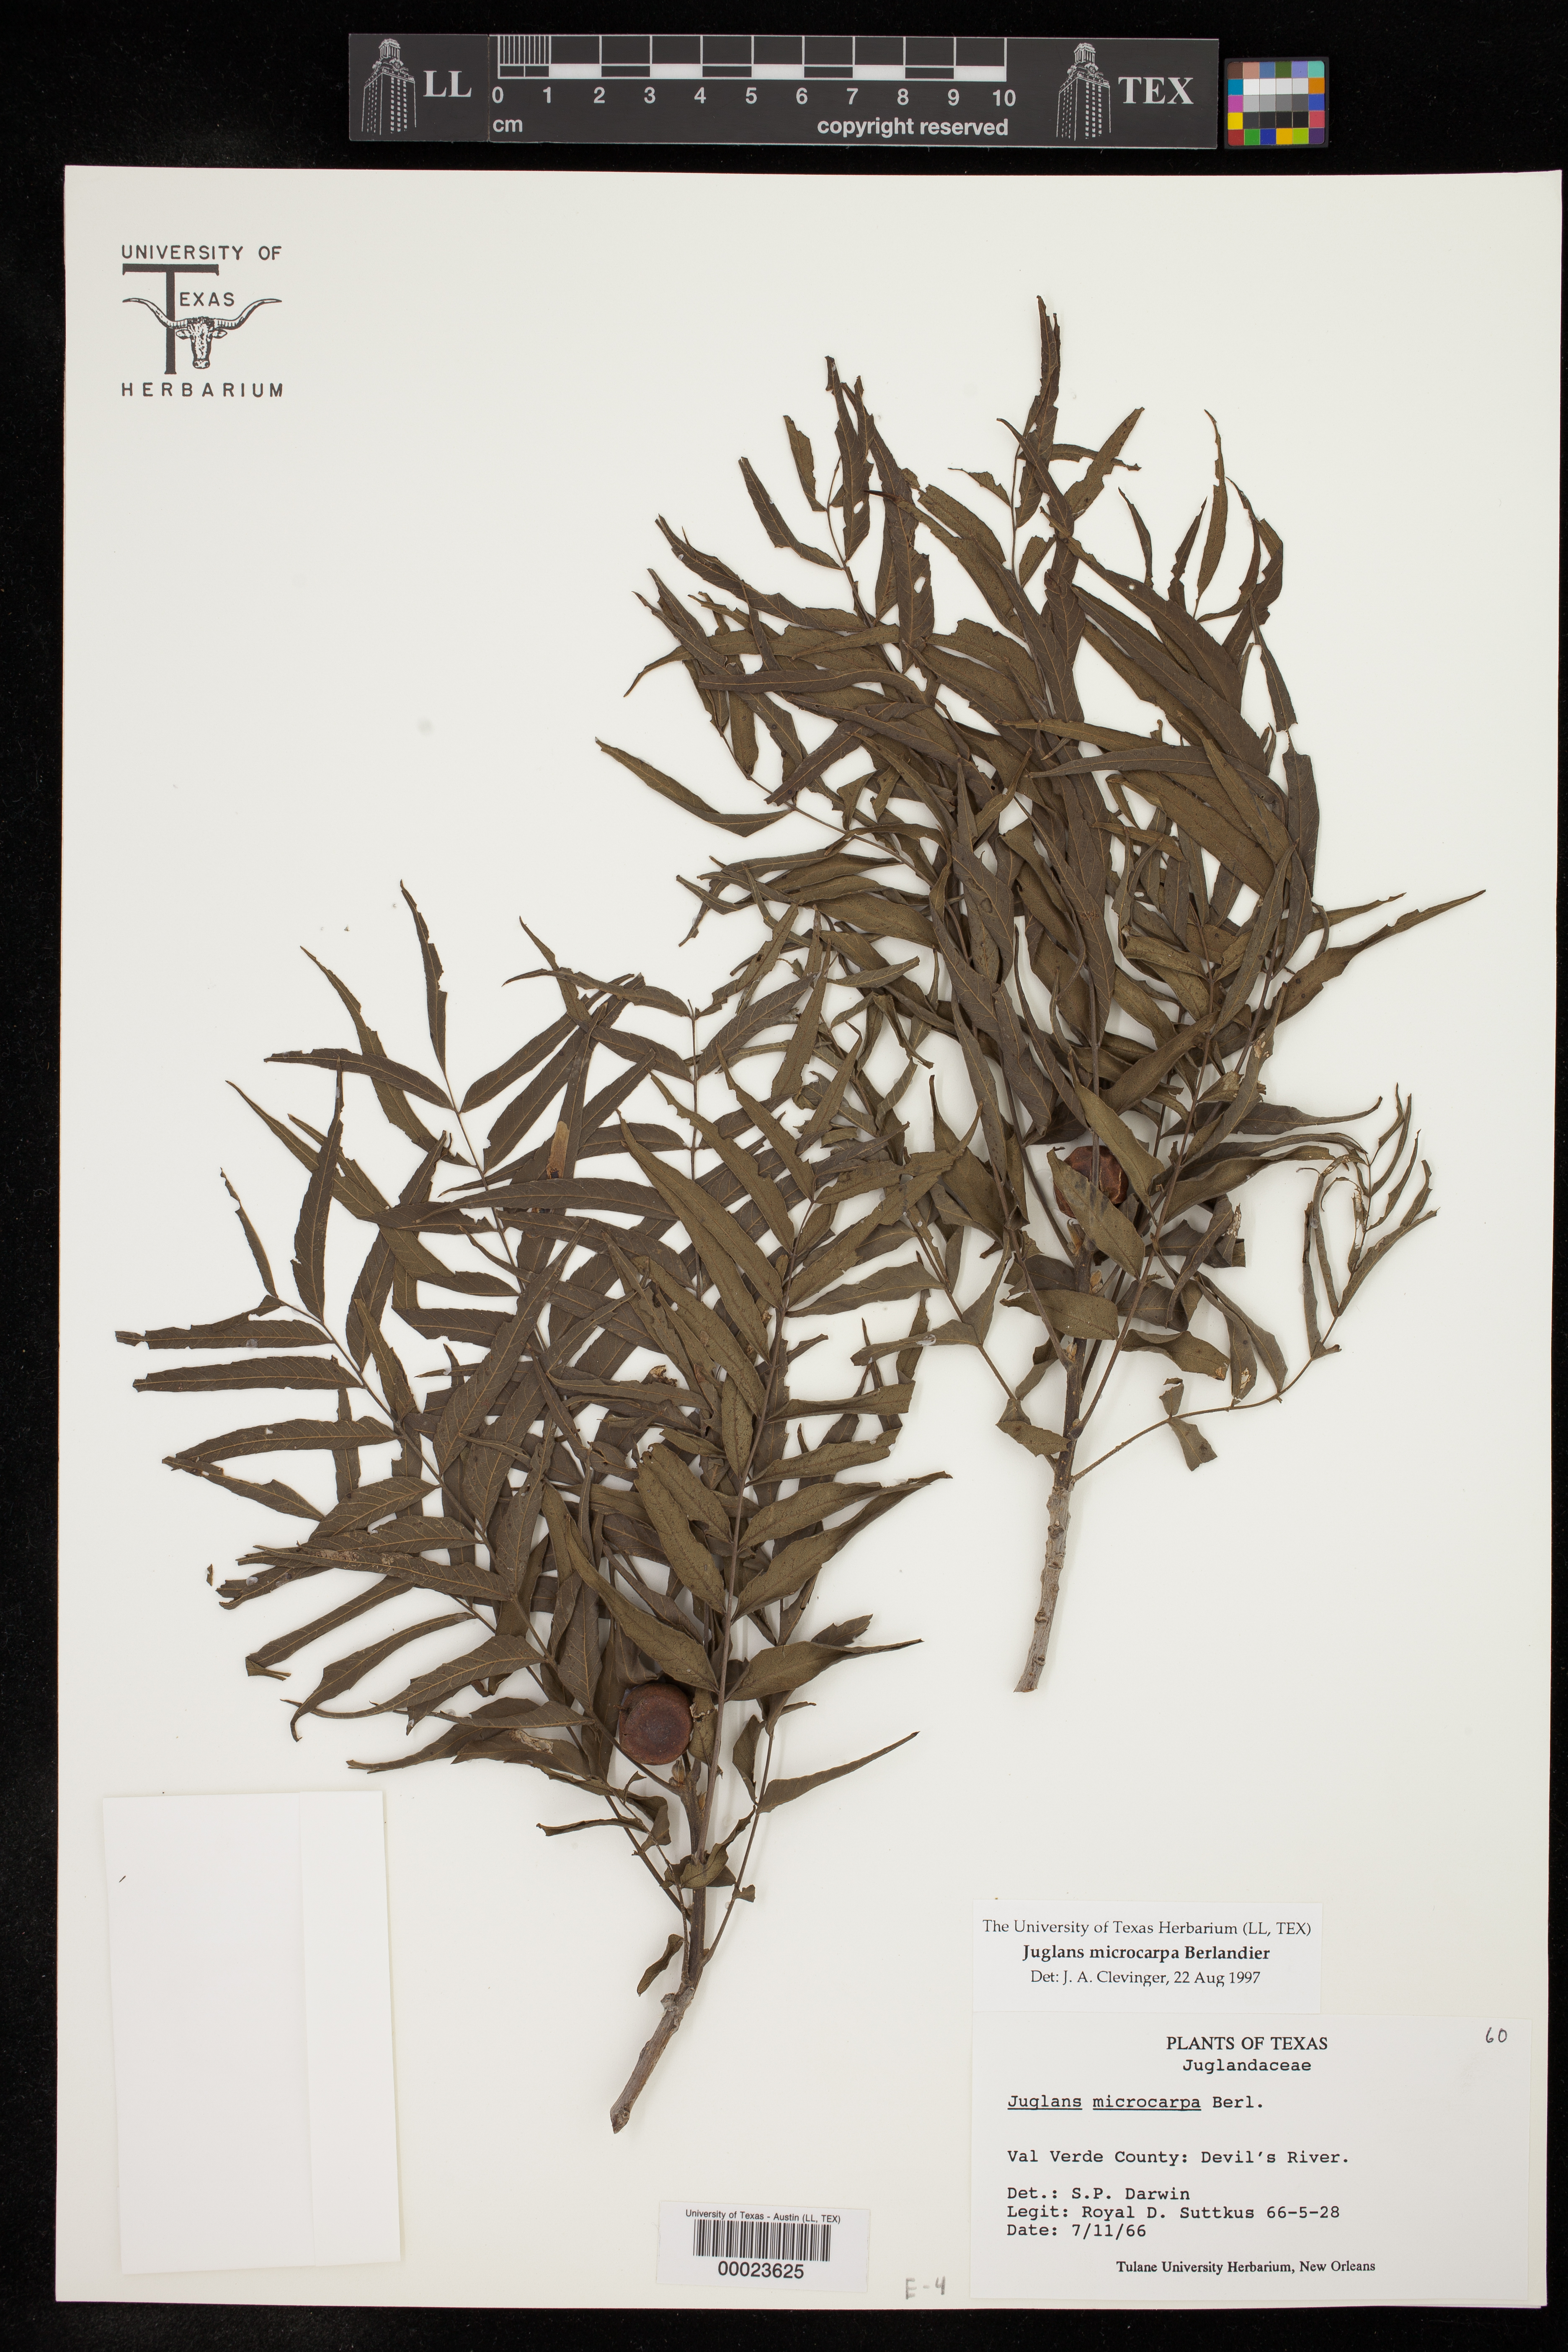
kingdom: Plantae
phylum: Tracheophyta
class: Magnoliopsida
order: Fagales
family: Juglandaceae
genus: Juglans
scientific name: Juglans microcarpa
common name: Texas walnut
